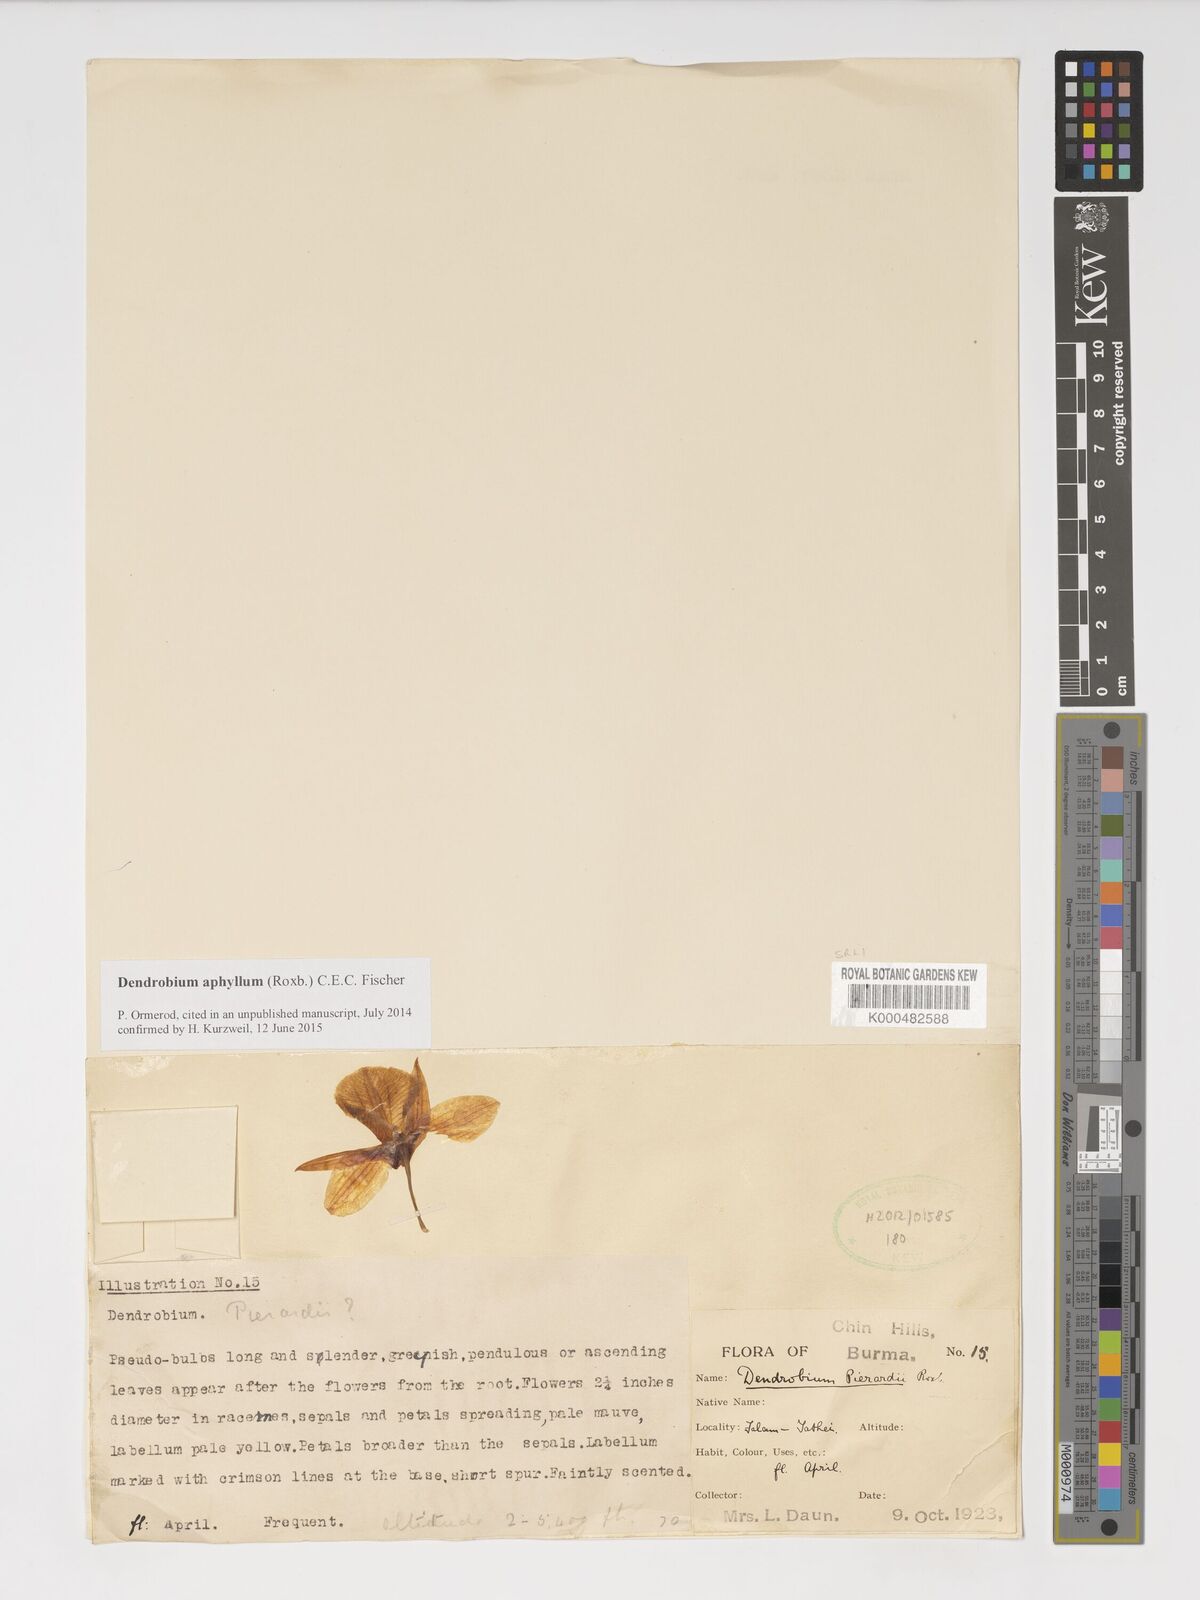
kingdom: Plantae
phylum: Tracheophyta
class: Liliopsida
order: Asparagales
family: Orchidaceae
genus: Dendrobium
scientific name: Dendrobium macrostachyum
